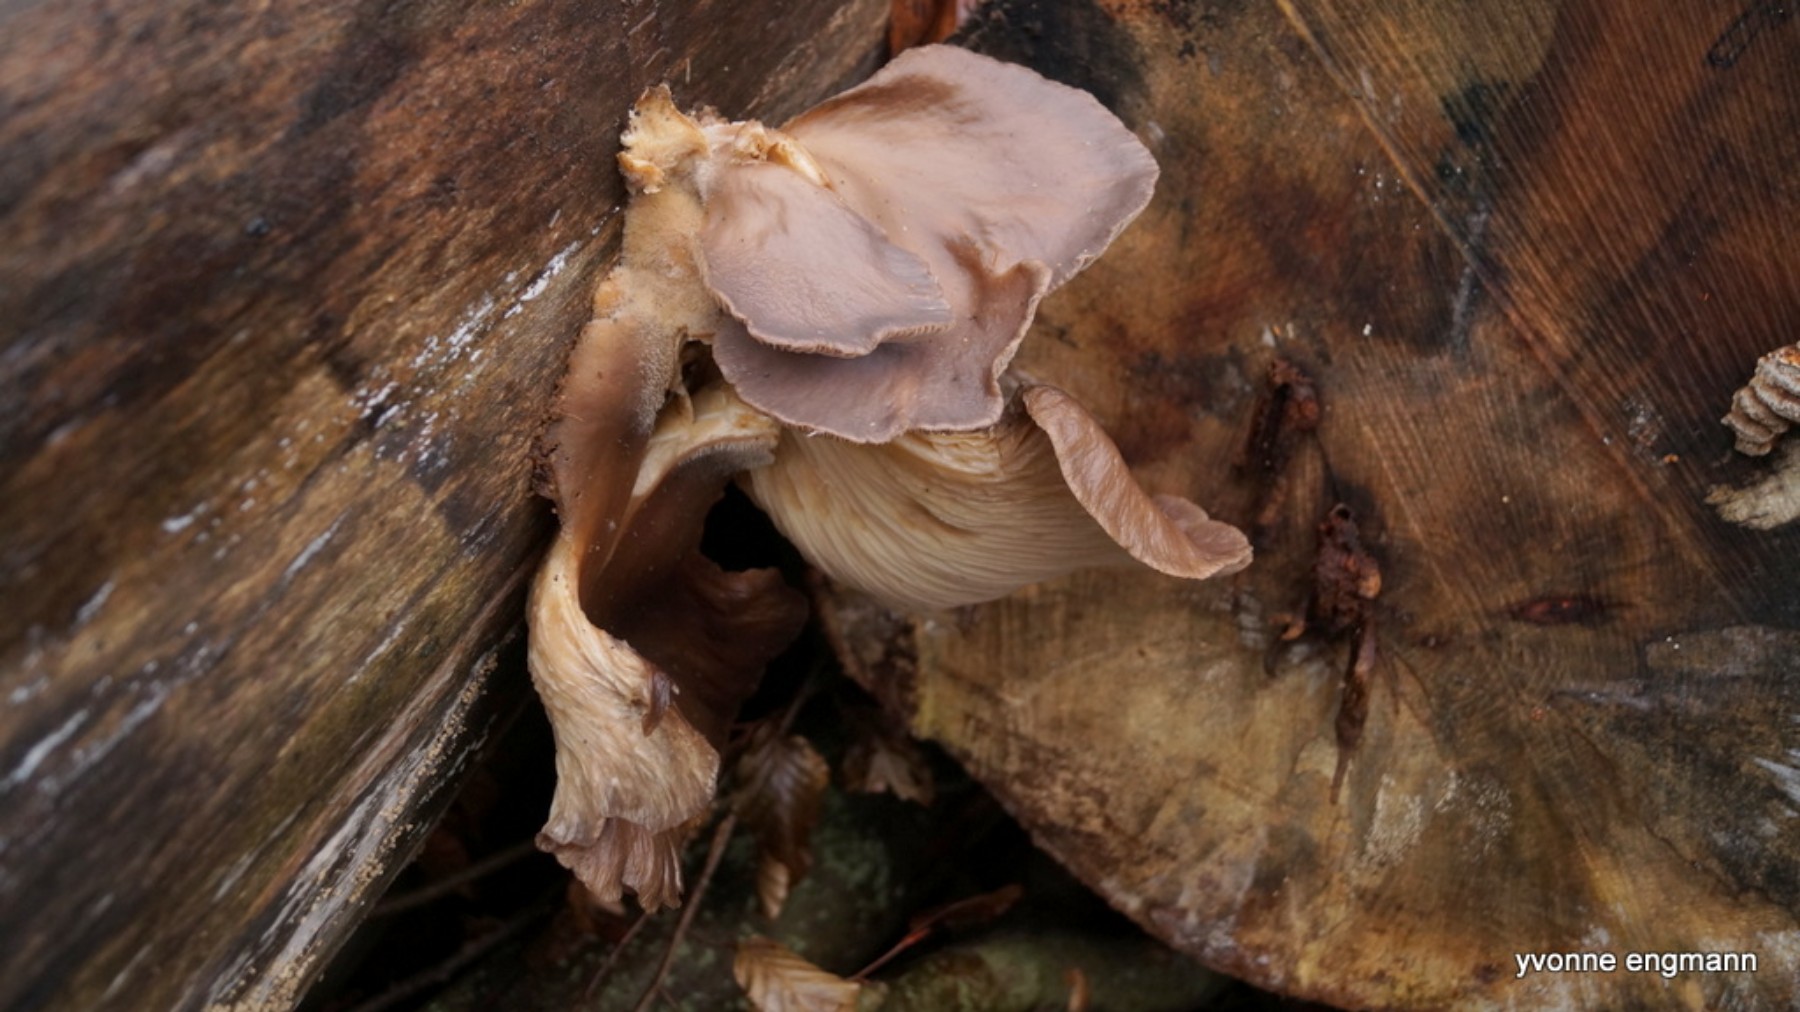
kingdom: Fungi
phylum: Basidiomycota
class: Agaricomycetes
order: Agaricales
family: Pleurotaceae
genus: Pleurotus
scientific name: Pleurotus ostreatus
